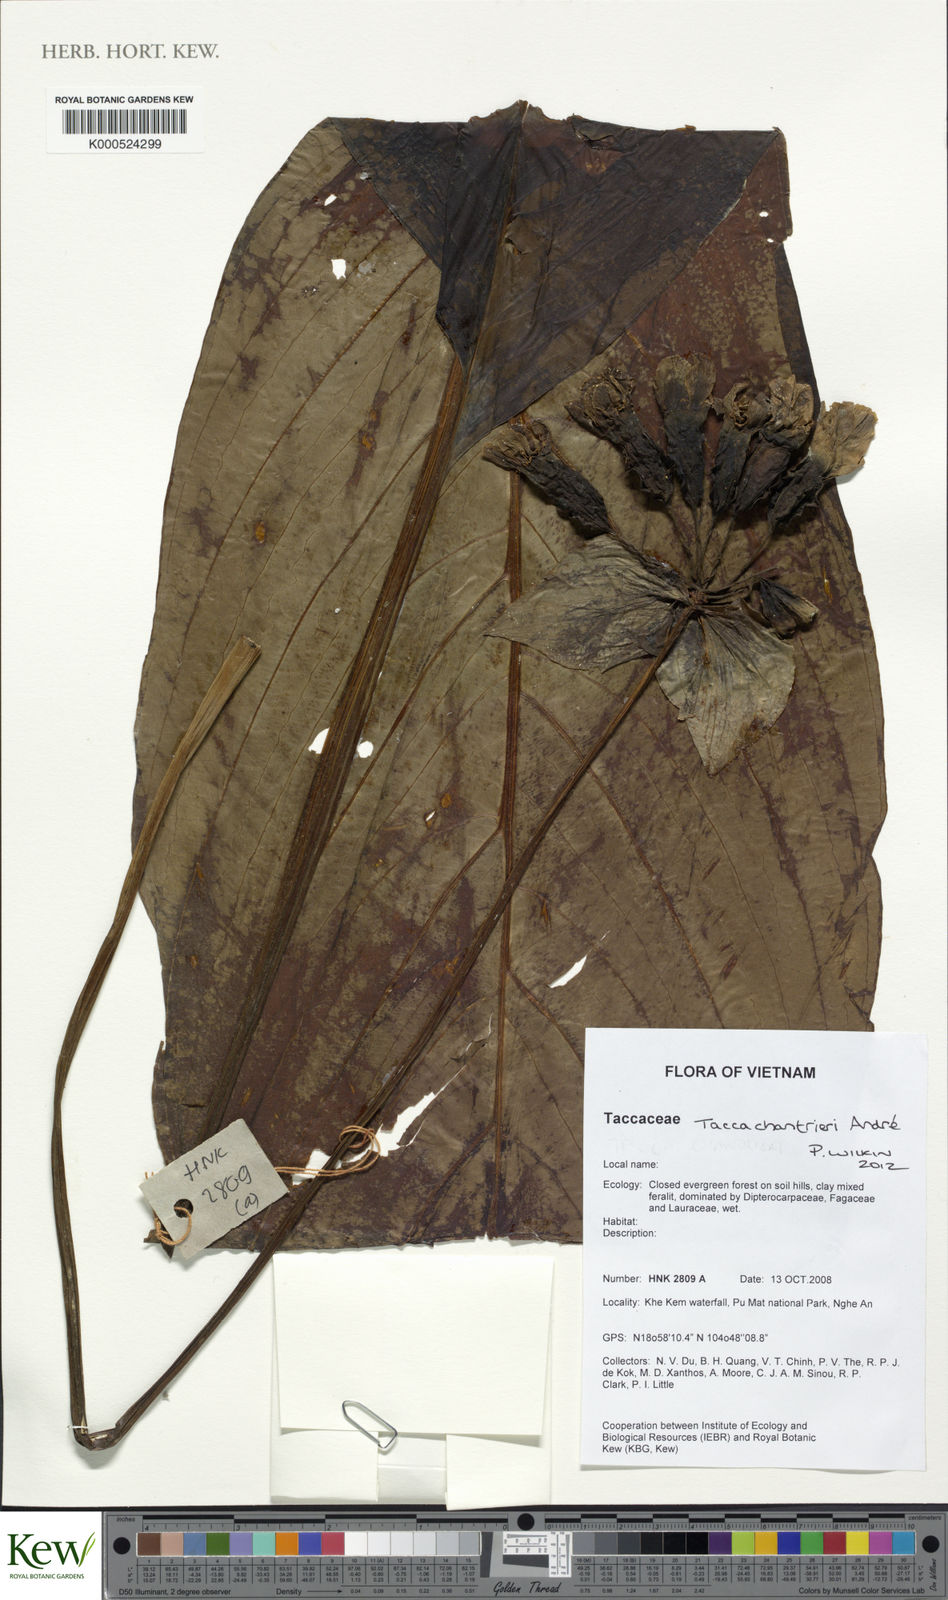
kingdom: Plantae
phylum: Tracheophyta
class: Liliopsida
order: Dioscoreales
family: Dioscoreaceae
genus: Tacca
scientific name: Tacca chantrieri
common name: Cat's-whiskers
